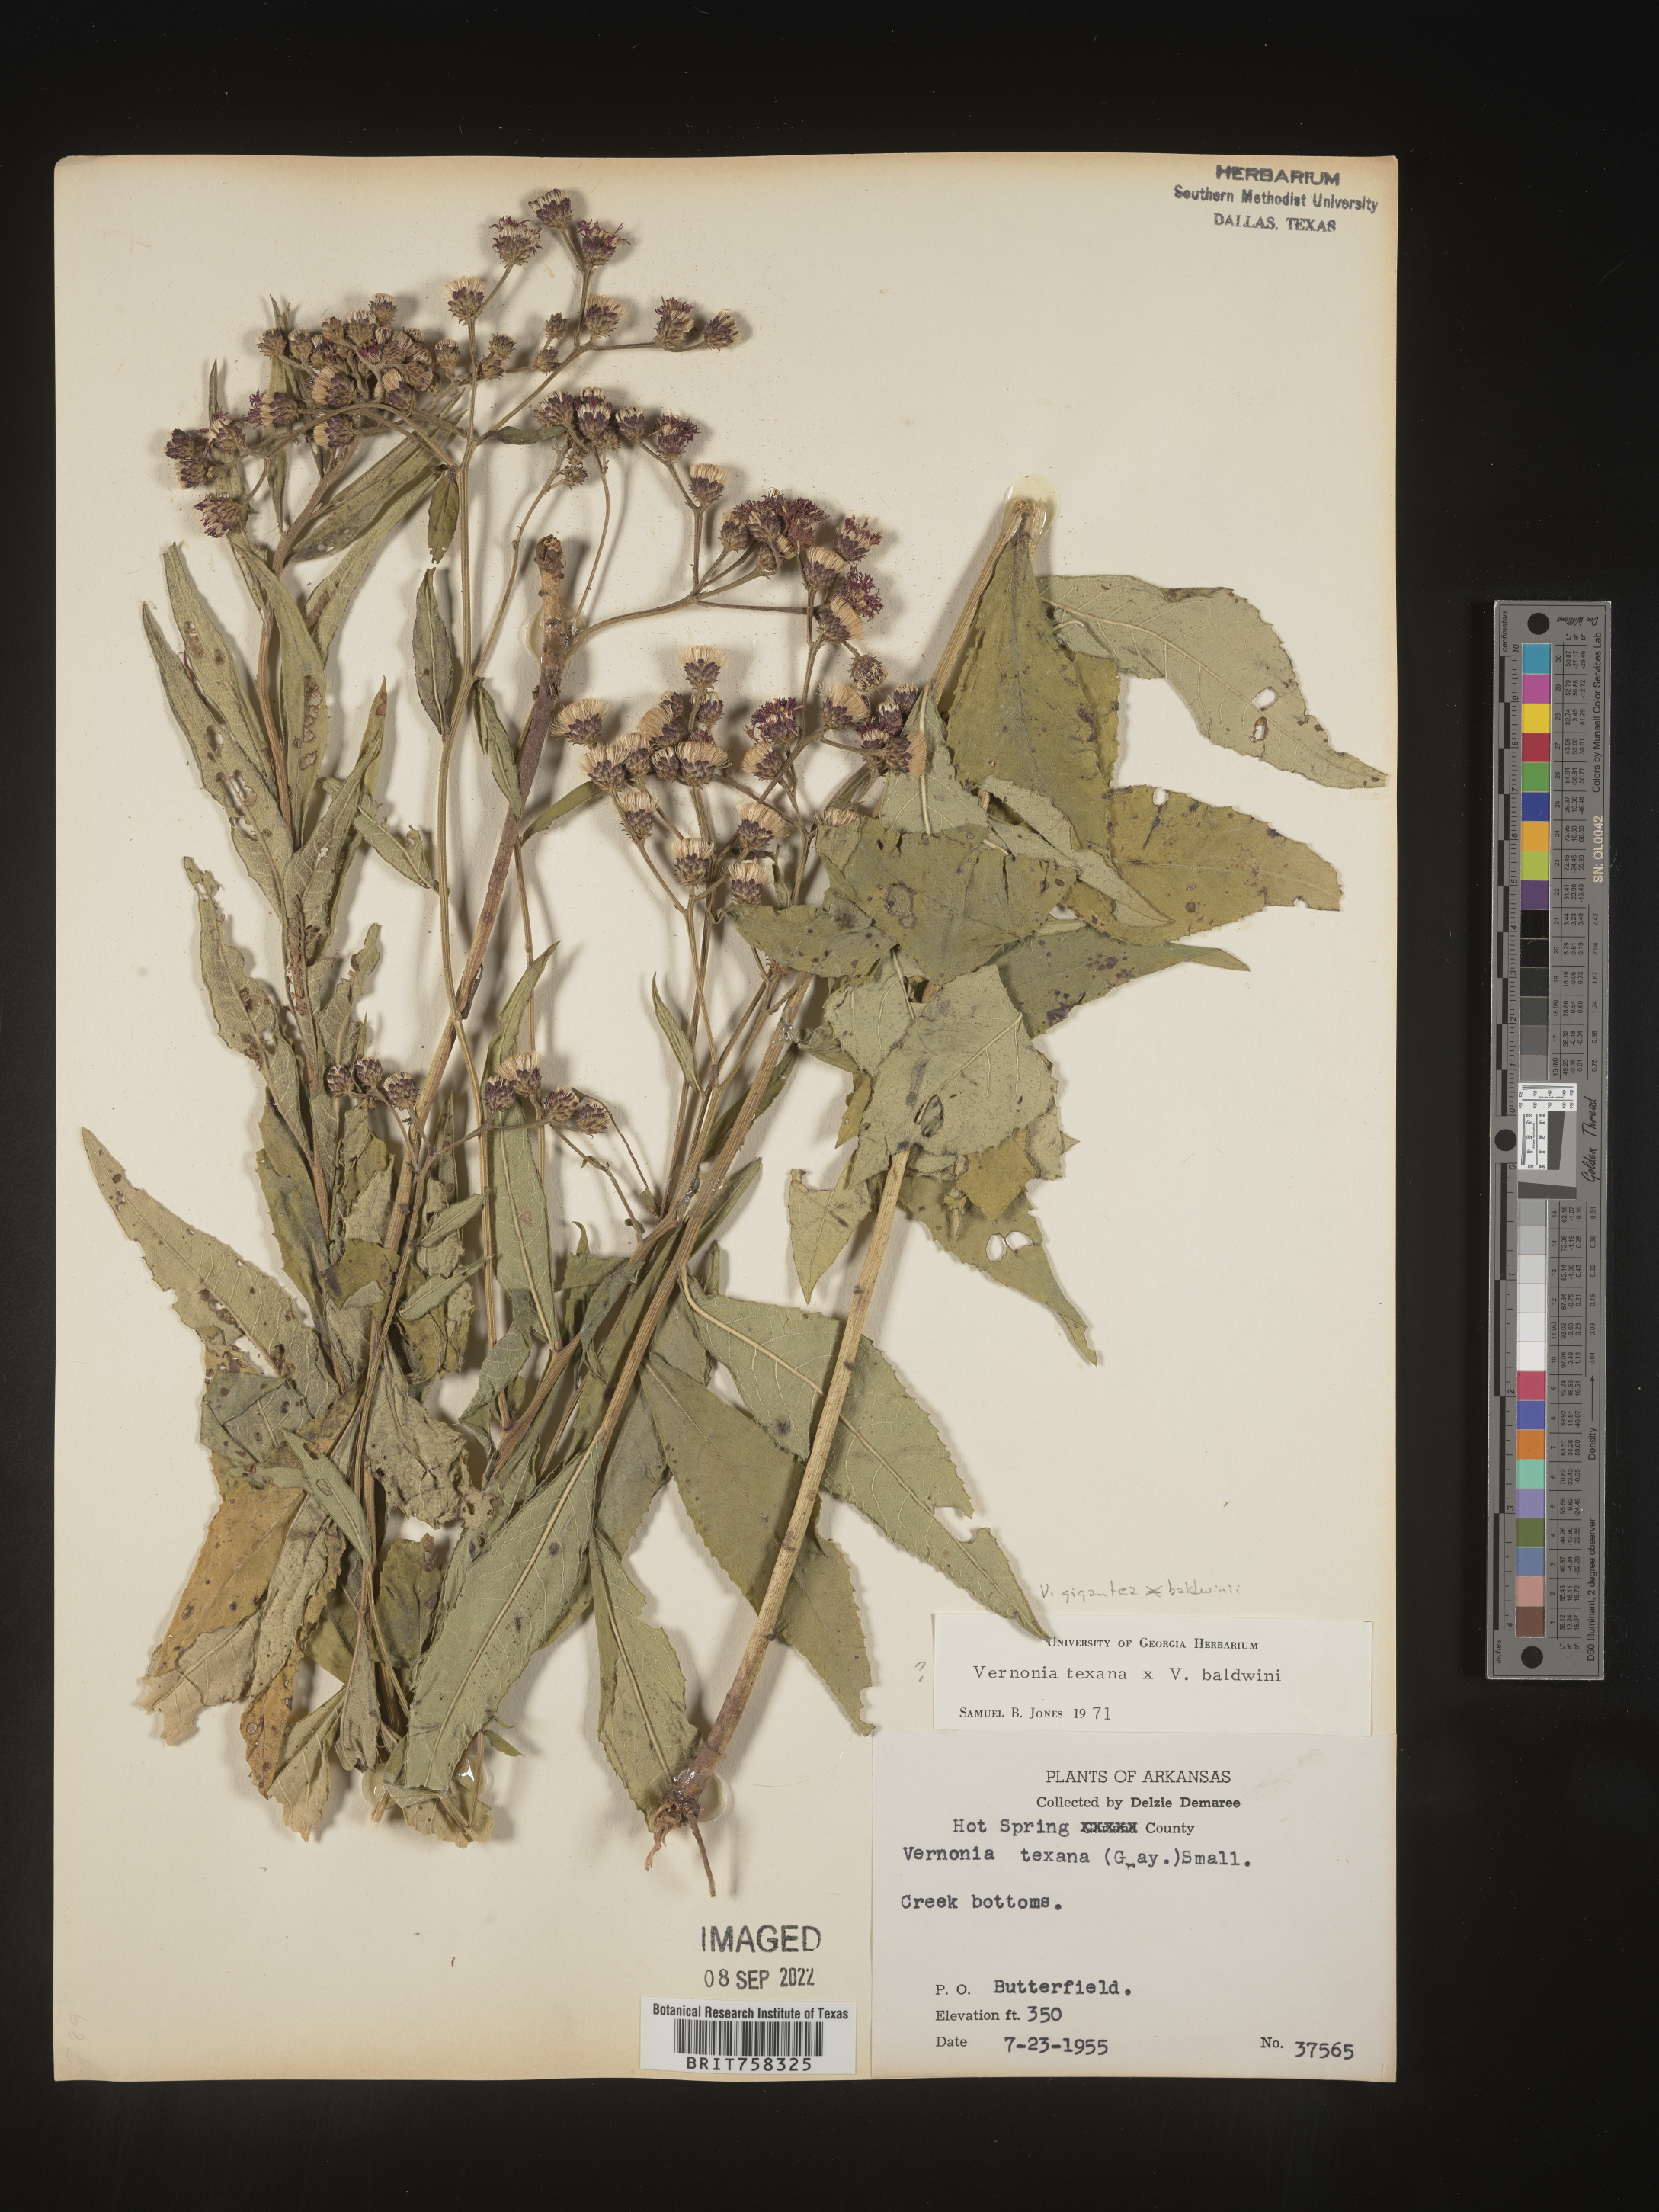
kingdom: Plantae
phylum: Tracheophyta
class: Magnoliopsida
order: Asterales
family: Asteraceae
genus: Vernonia
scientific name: Vernonia gigantea
